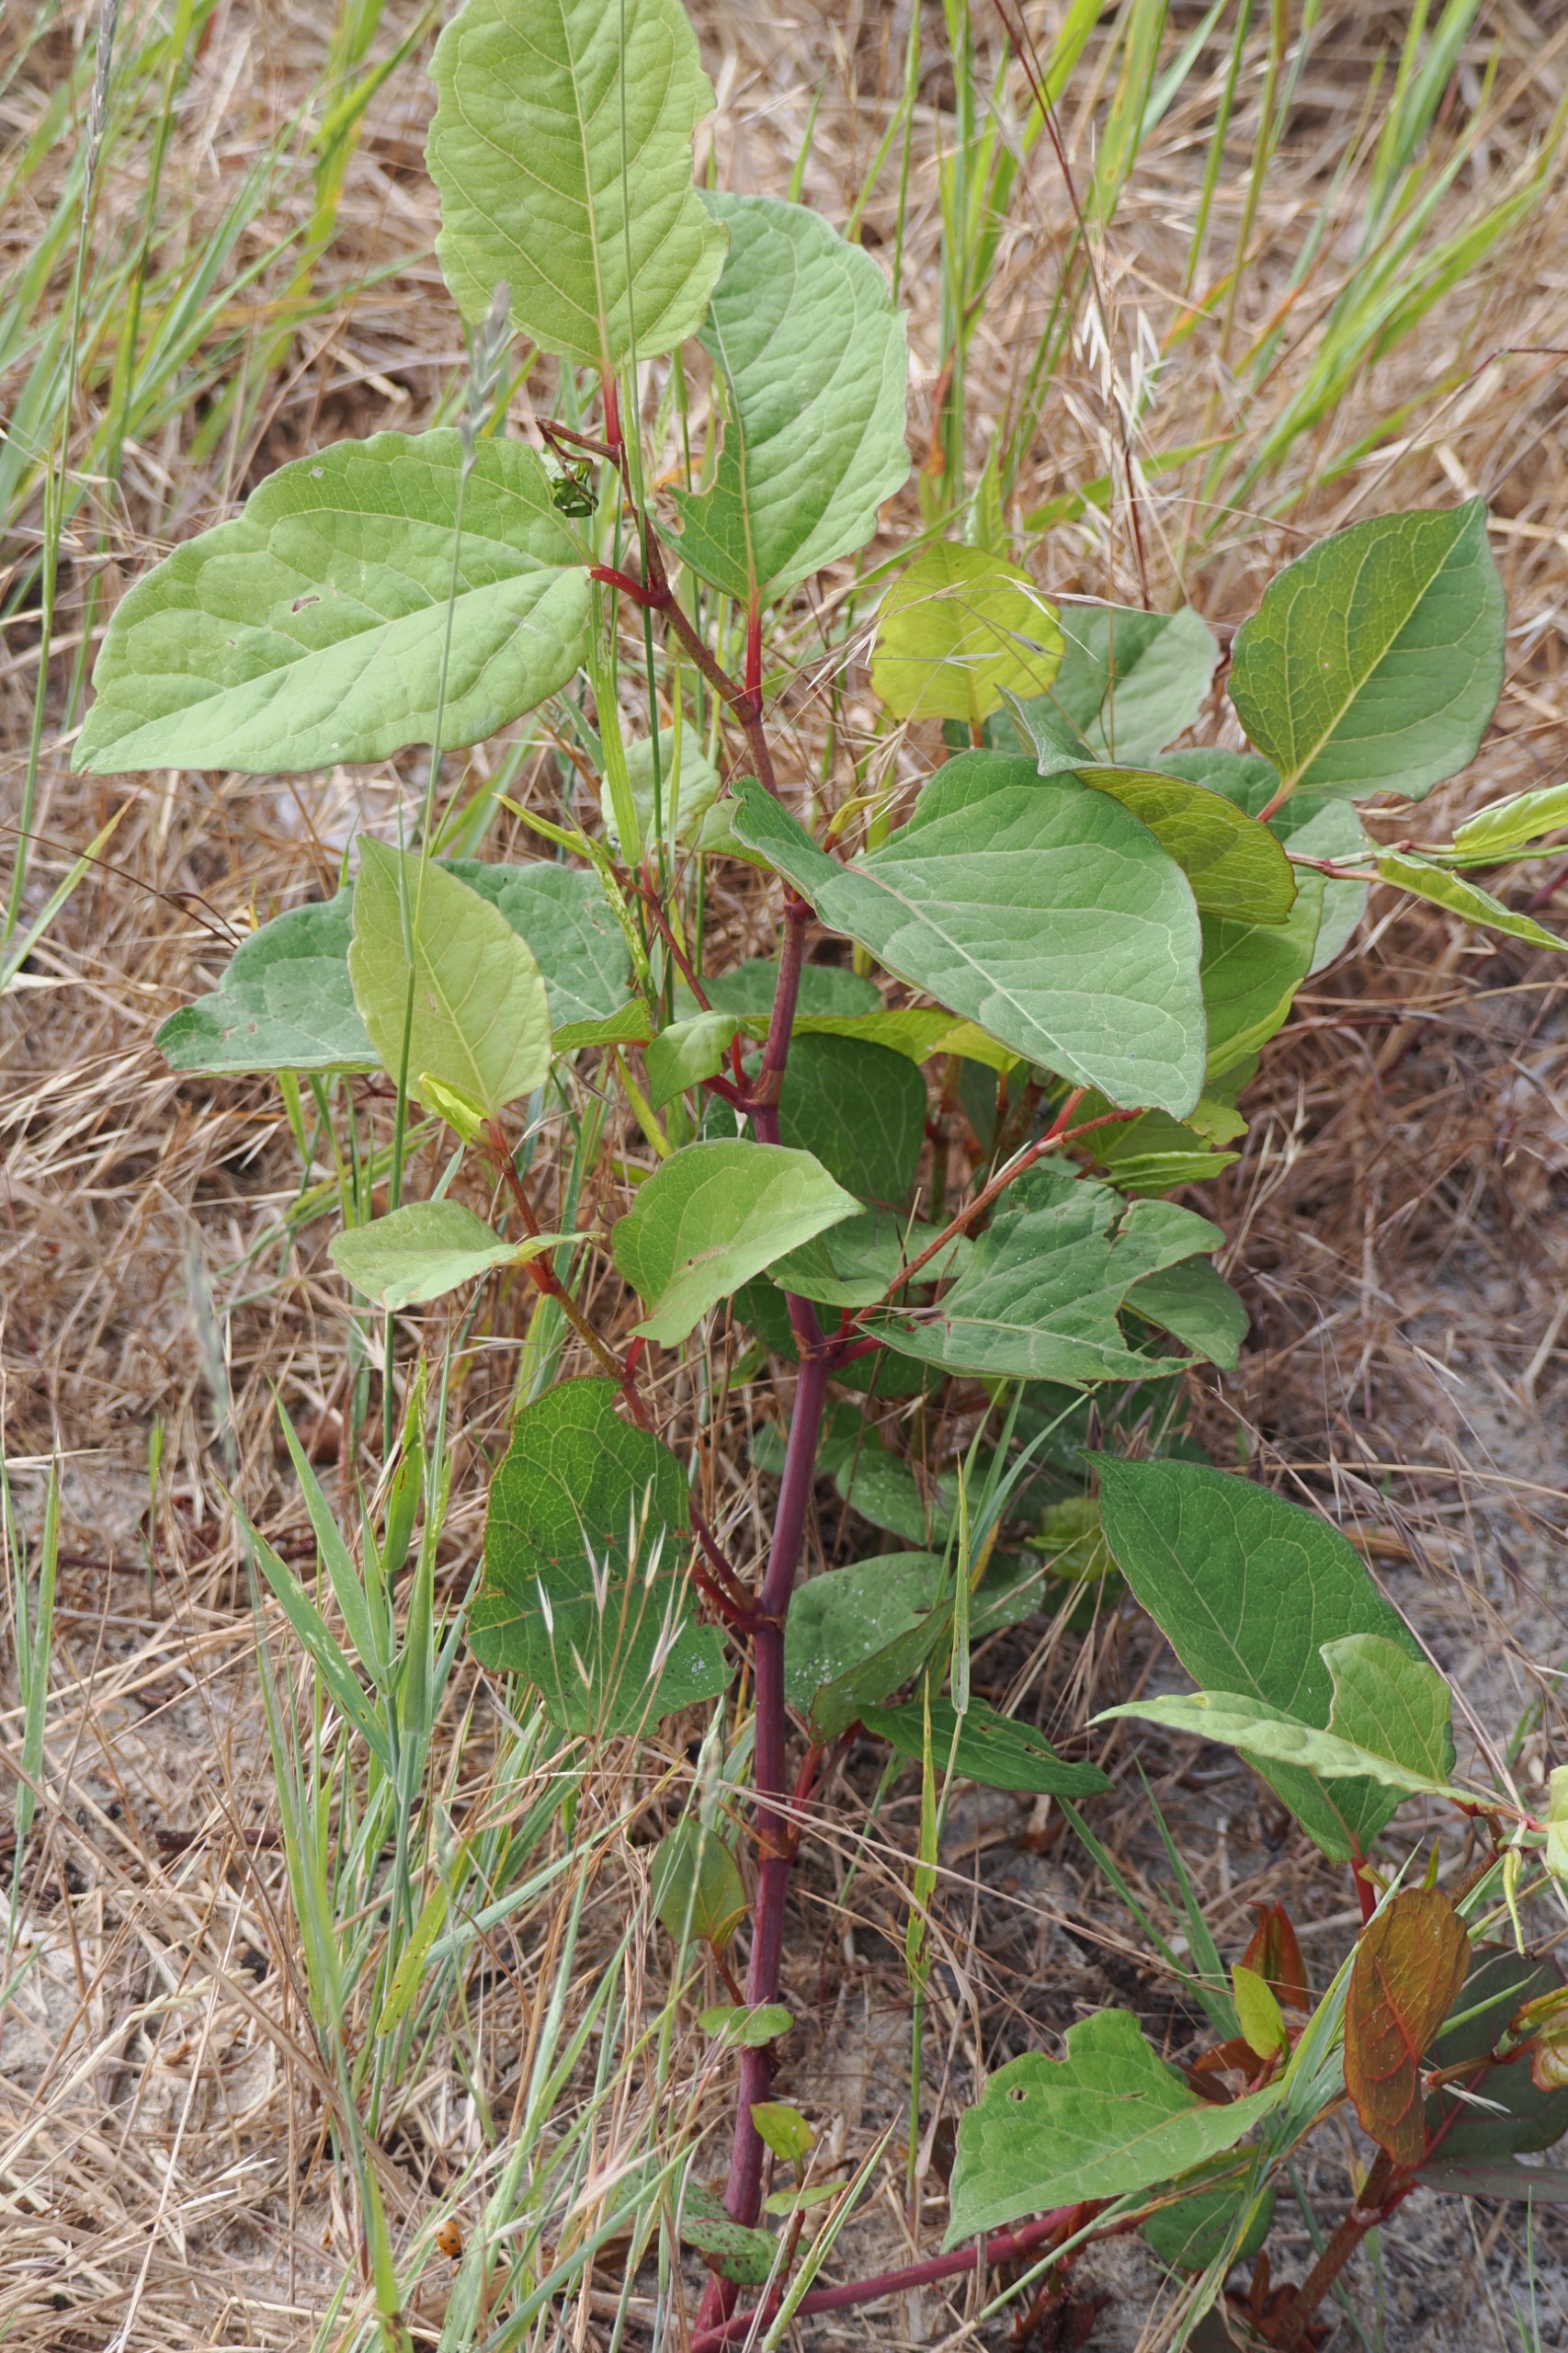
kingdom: Plantae
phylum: Tracheophyta
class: Magnoliopsida
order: Caryophyllales
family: Polygonaceae
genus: Reynoutria
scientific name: Reynoutria
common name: Pileurt (Reynoutria-slægten)
